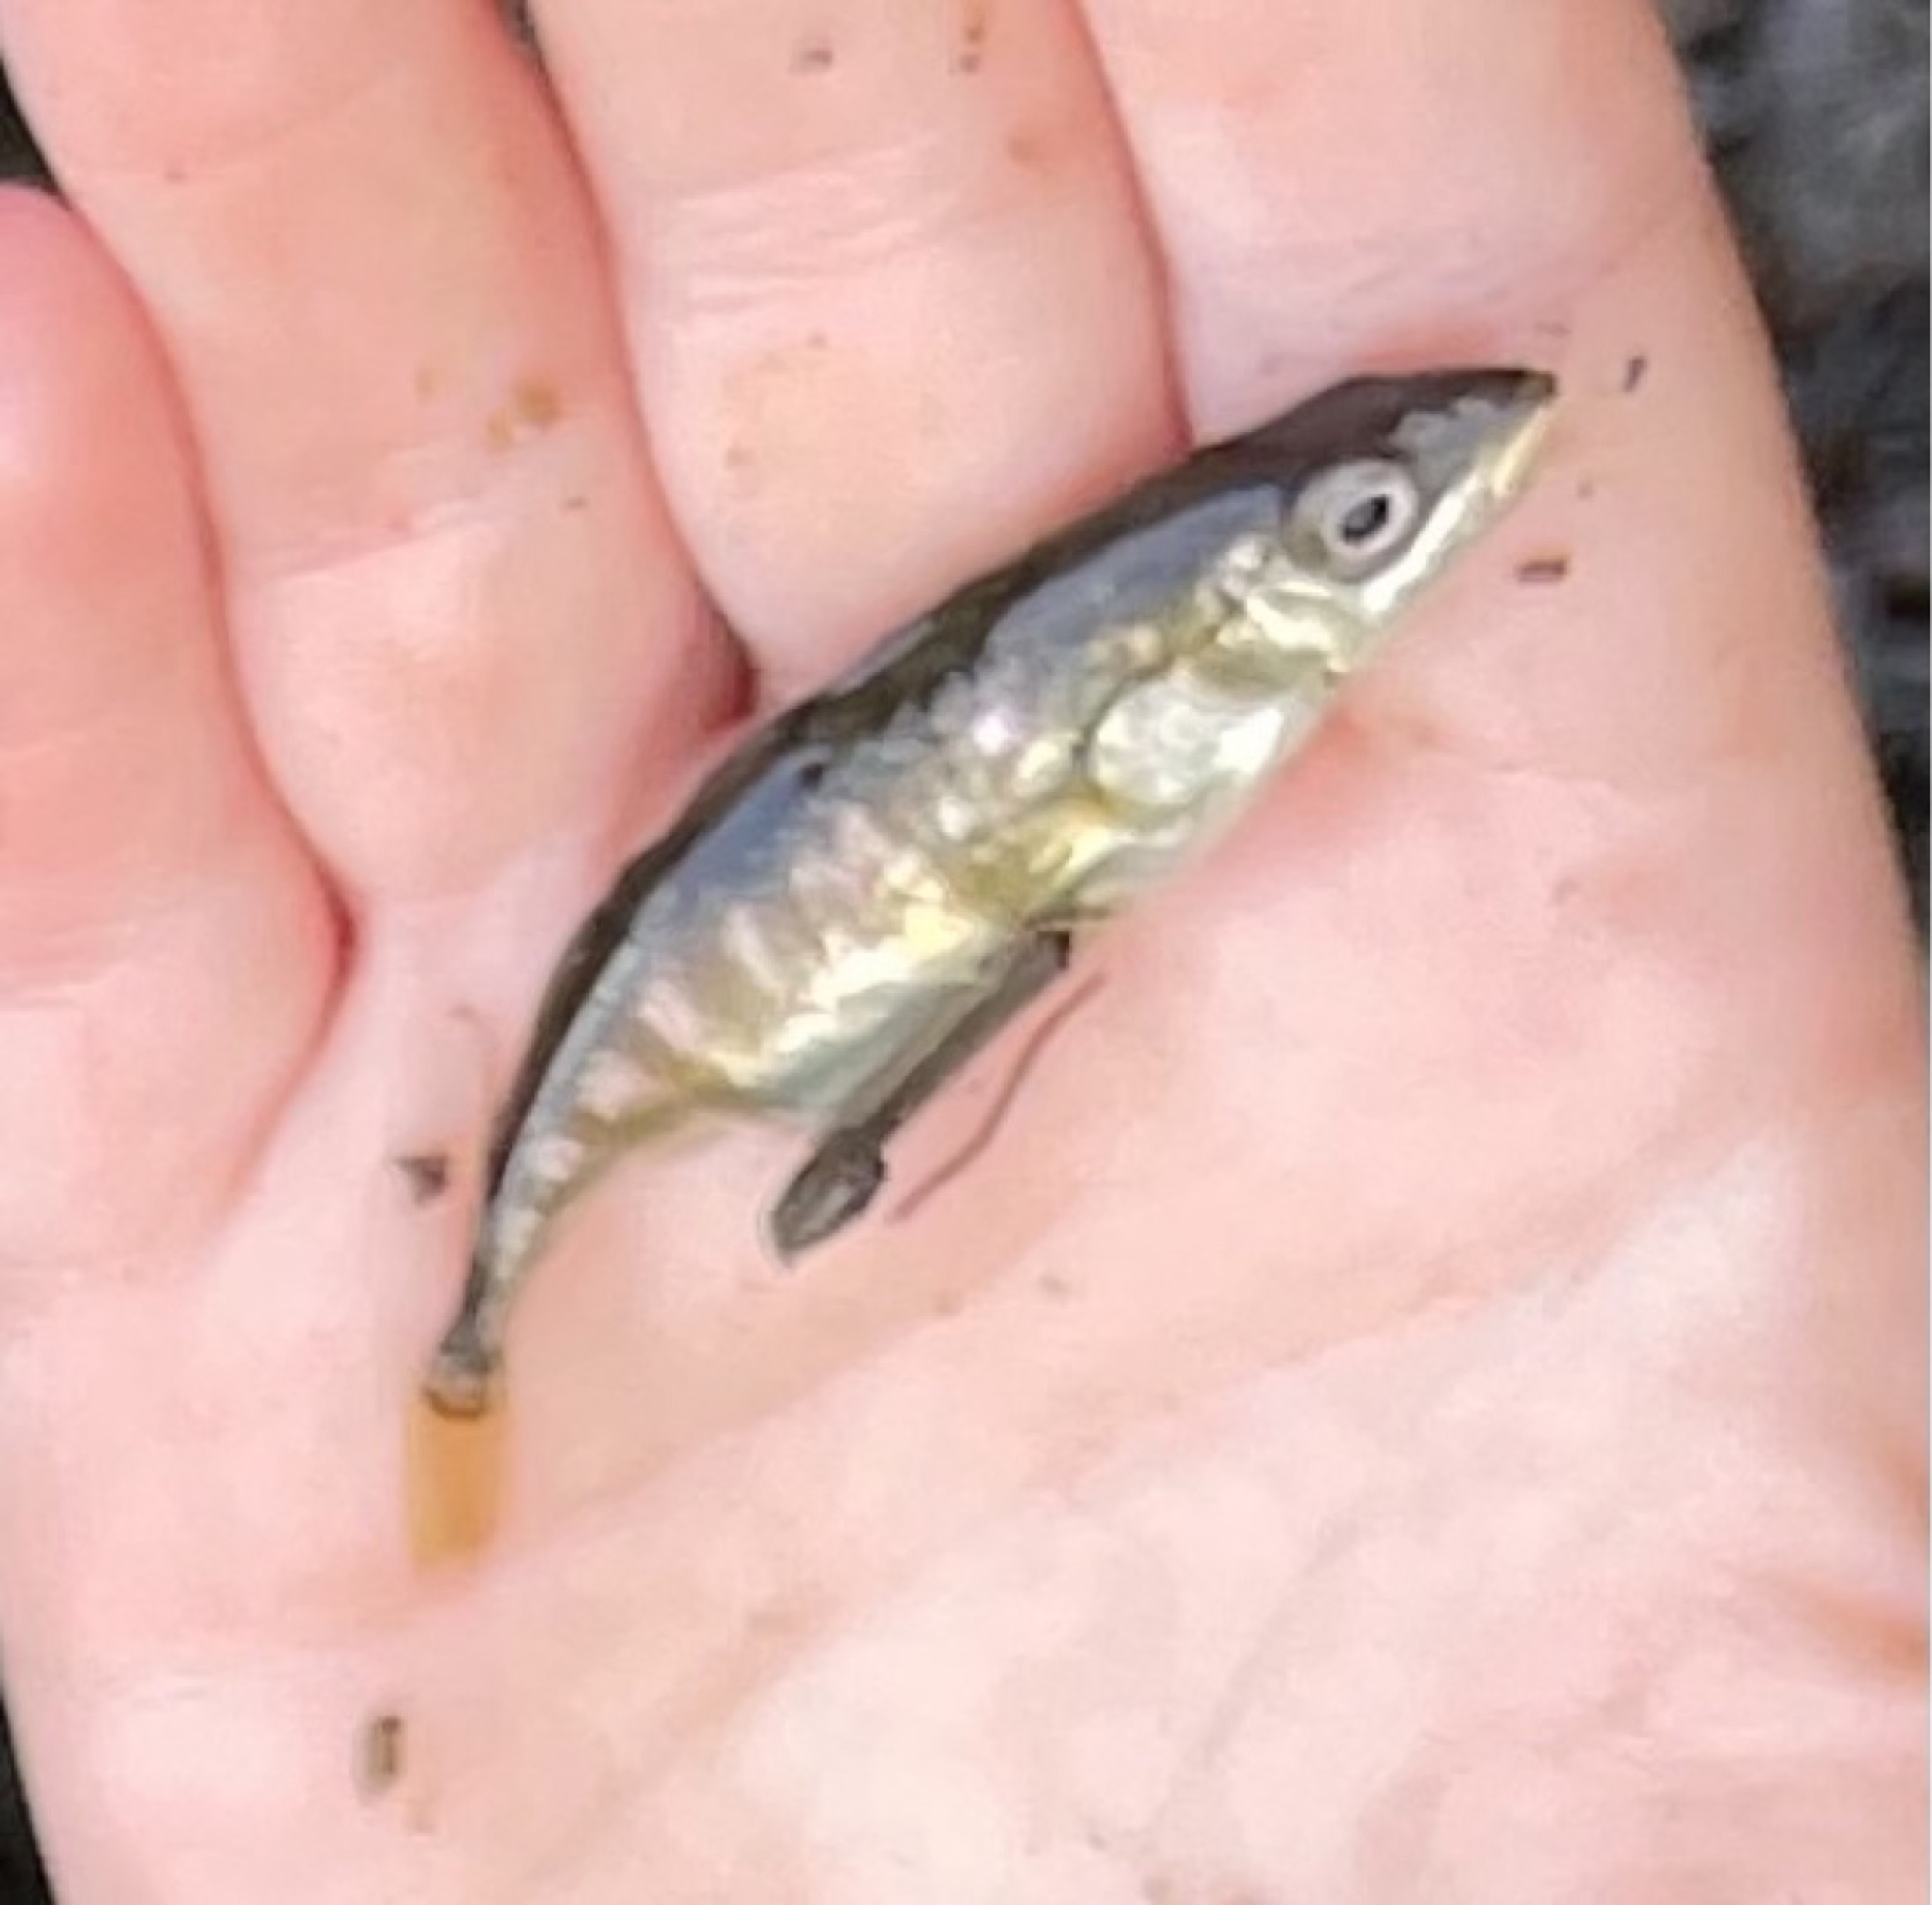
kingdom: Animalia
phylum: Chordata
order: Gasterosteiformes
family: Gasterosteidae
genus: Gasterosteus
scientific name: Gasterosteus aculeatus
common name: Trepigget hundestejle
